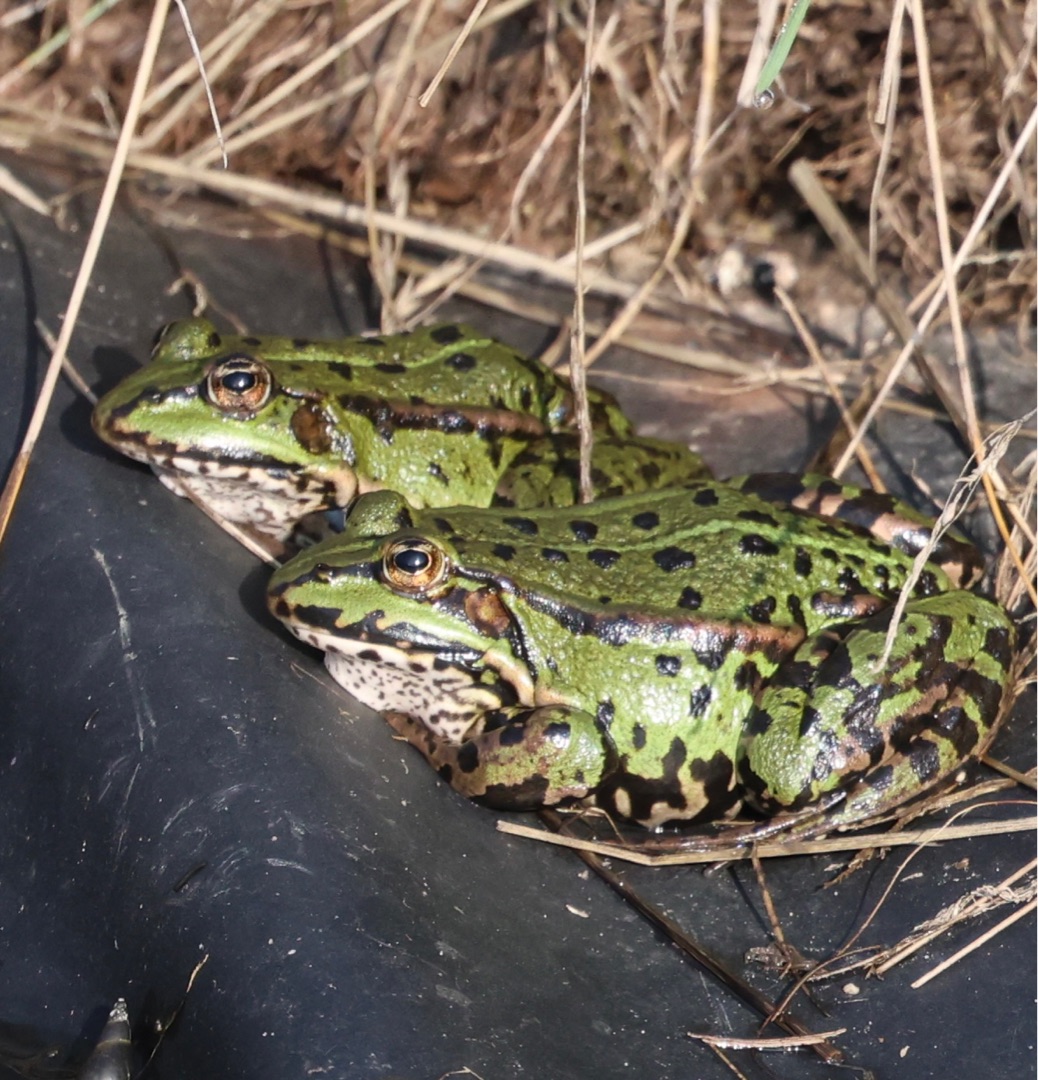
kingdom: Animalia
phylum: Chordata
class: Amphibia
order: Anura
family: Ranidae
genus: Pelophylax
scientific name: Pelophylax lessonae
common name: Grøn frø
